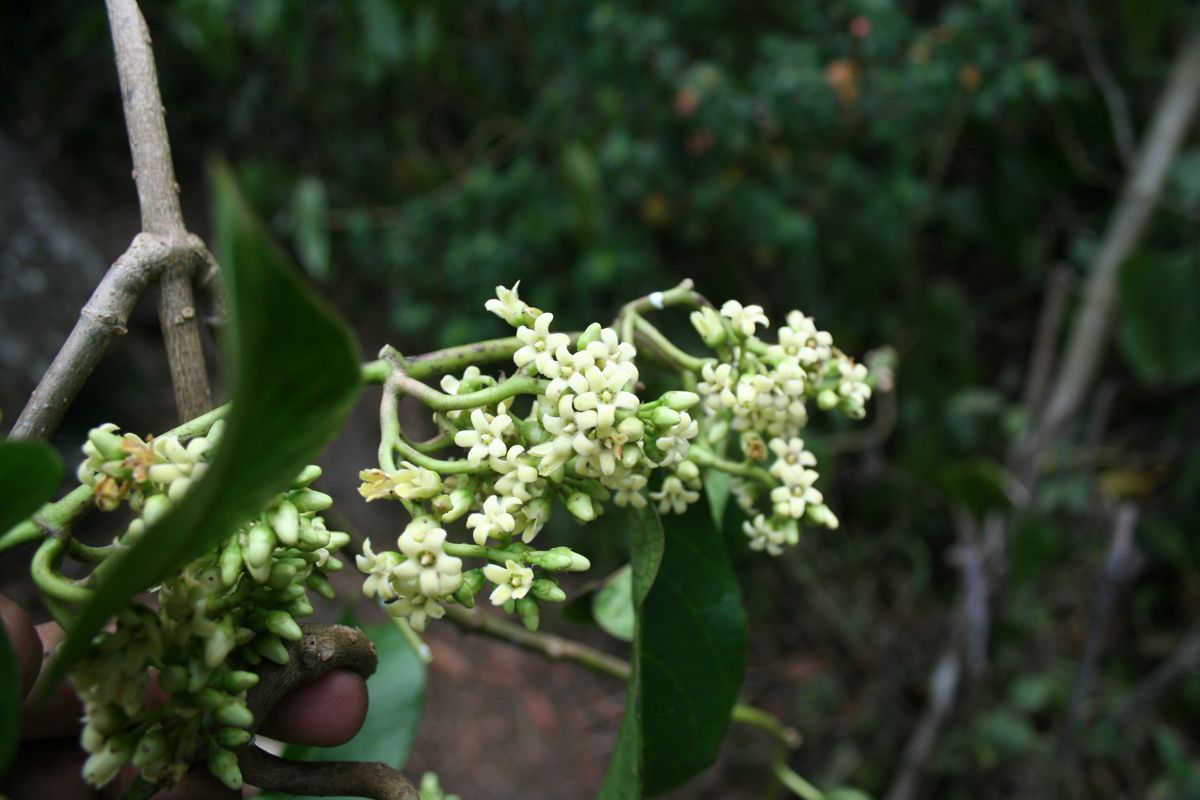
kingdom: Plantae
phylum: Tracheophyta
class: Magnoliopsida
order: Gentianales
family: Apocynaceae
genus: Marsdenia
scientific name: Marsdenia
